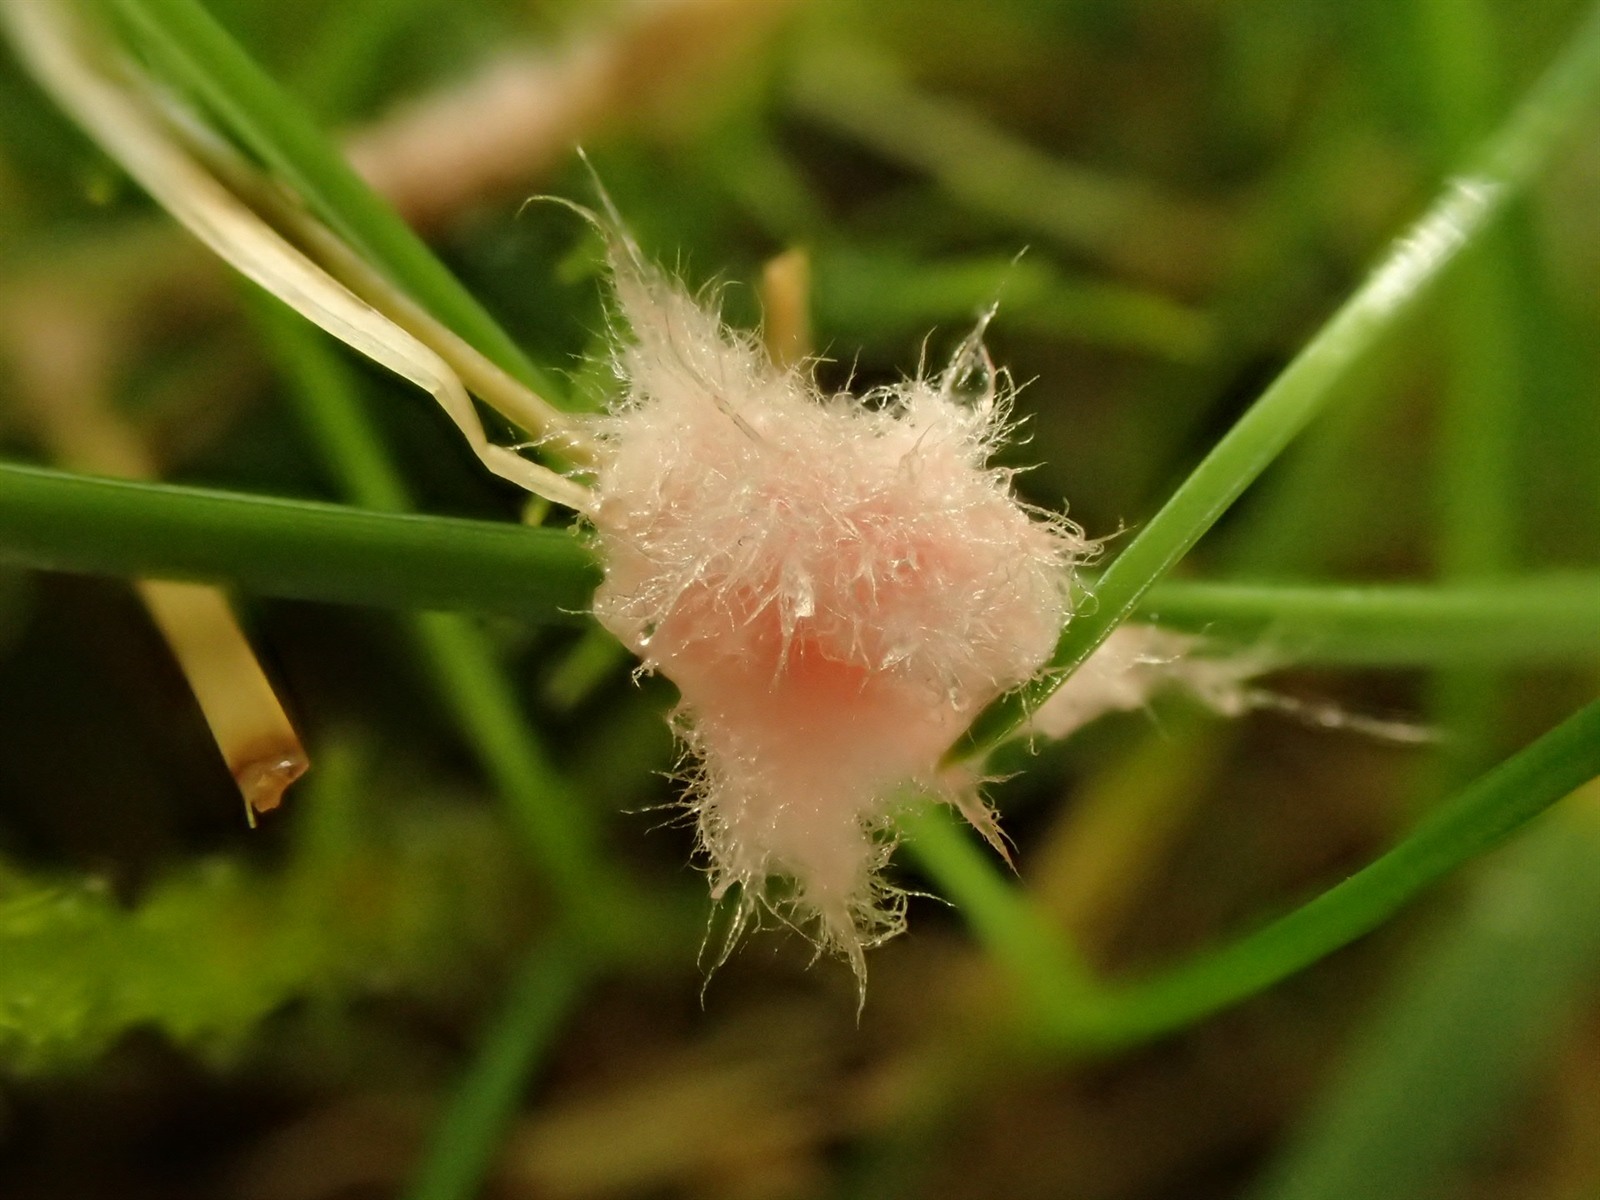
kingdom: Fungi
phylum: Basidiomycota
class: Agaricomycetes
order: Corticiales
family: Corticiaceae
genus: Laetisaria
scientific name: Laetisaria fuciformis
